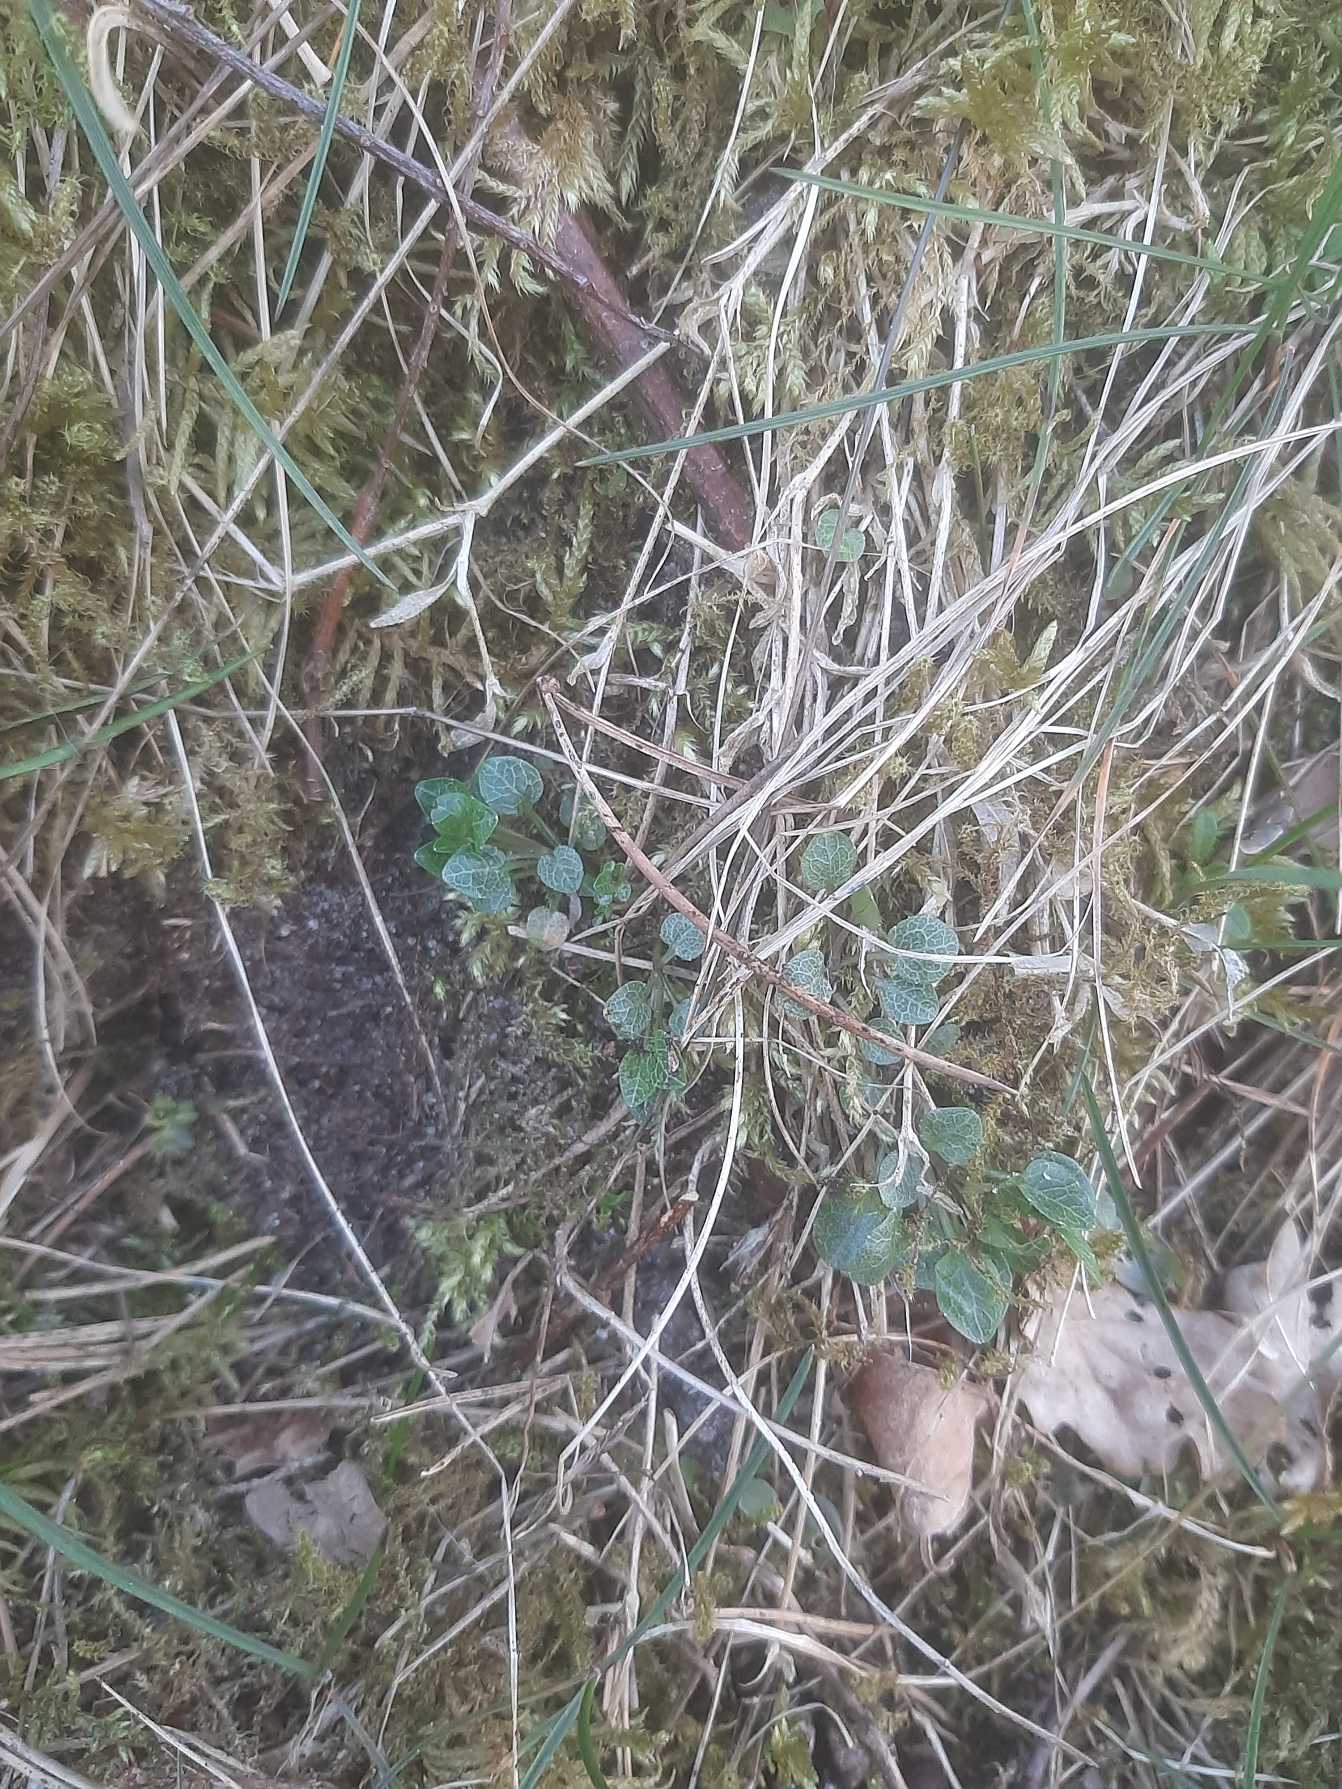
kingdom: Plantae
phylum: Tracheophyta
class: Magnoliopsida
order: Asterales
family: Campanulaceae
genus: Campanula
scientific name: Campanula rotundifolia
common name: Liden klokke
